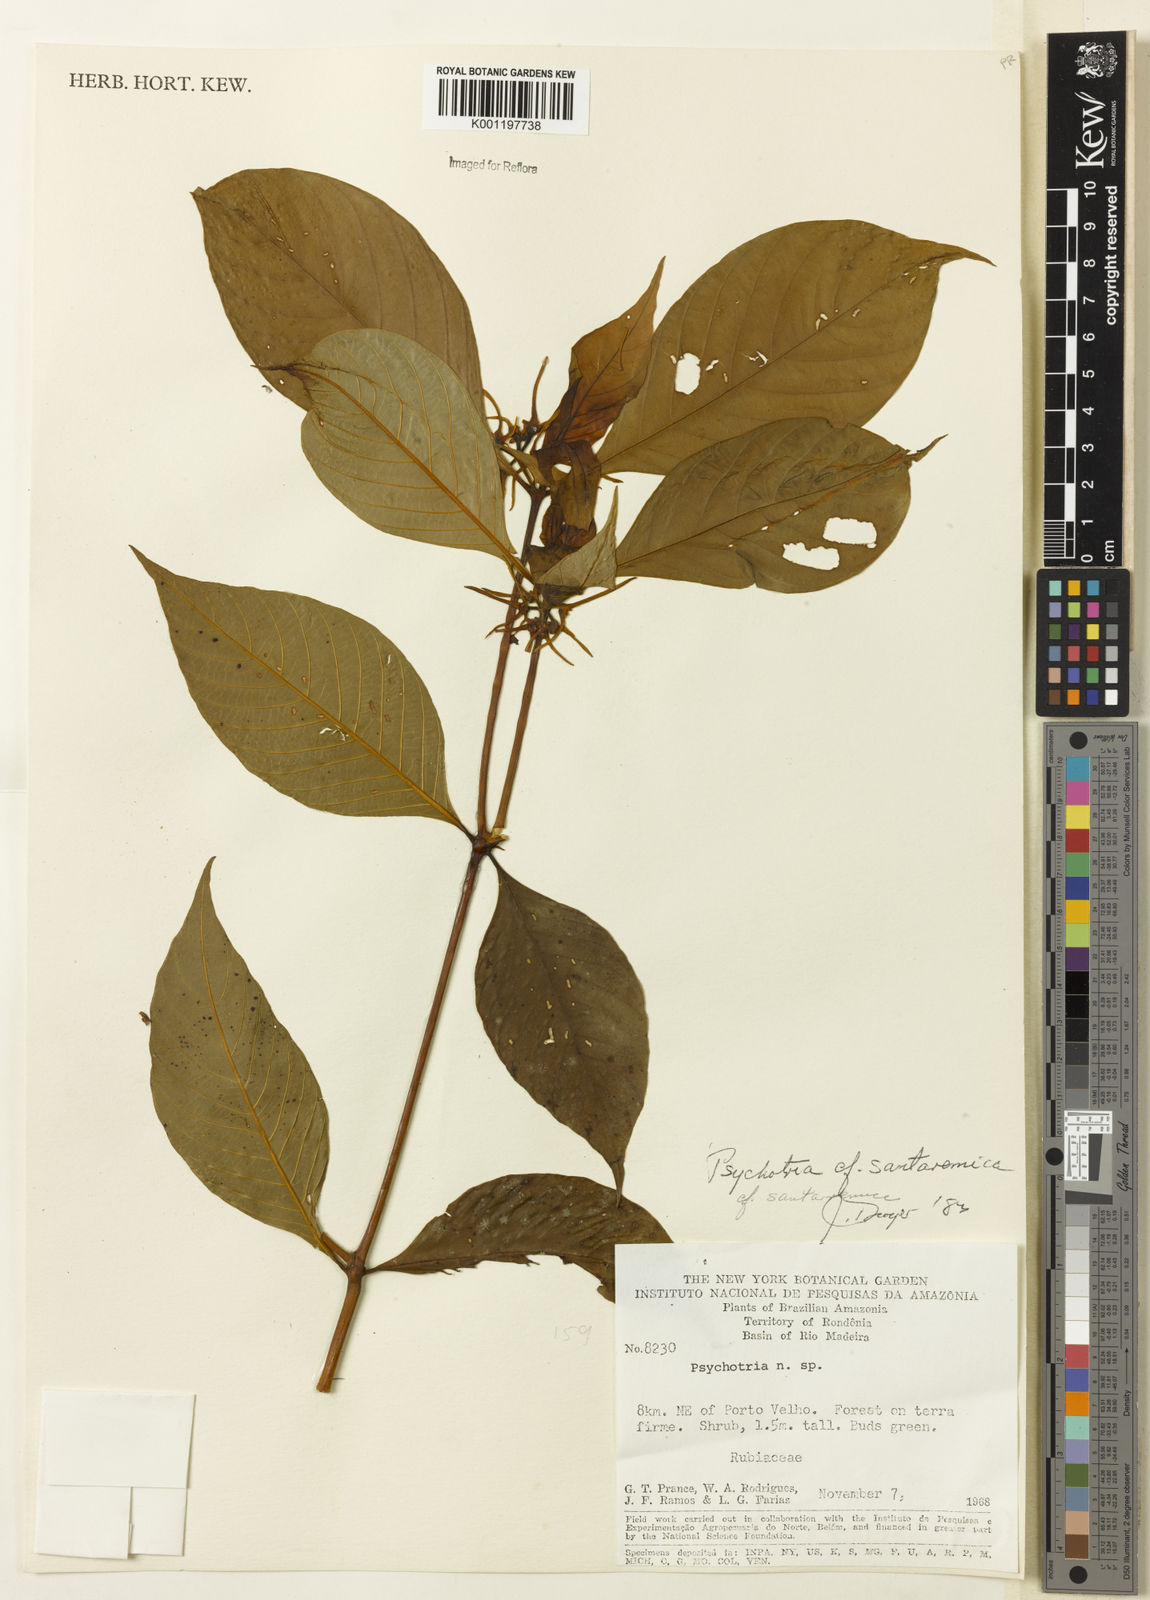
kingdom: Plantae
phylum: Tracheophyta
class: Magnoliopsida
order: Gentianales
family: Rubiaceae
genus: Psychotria
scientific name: Psychotria
